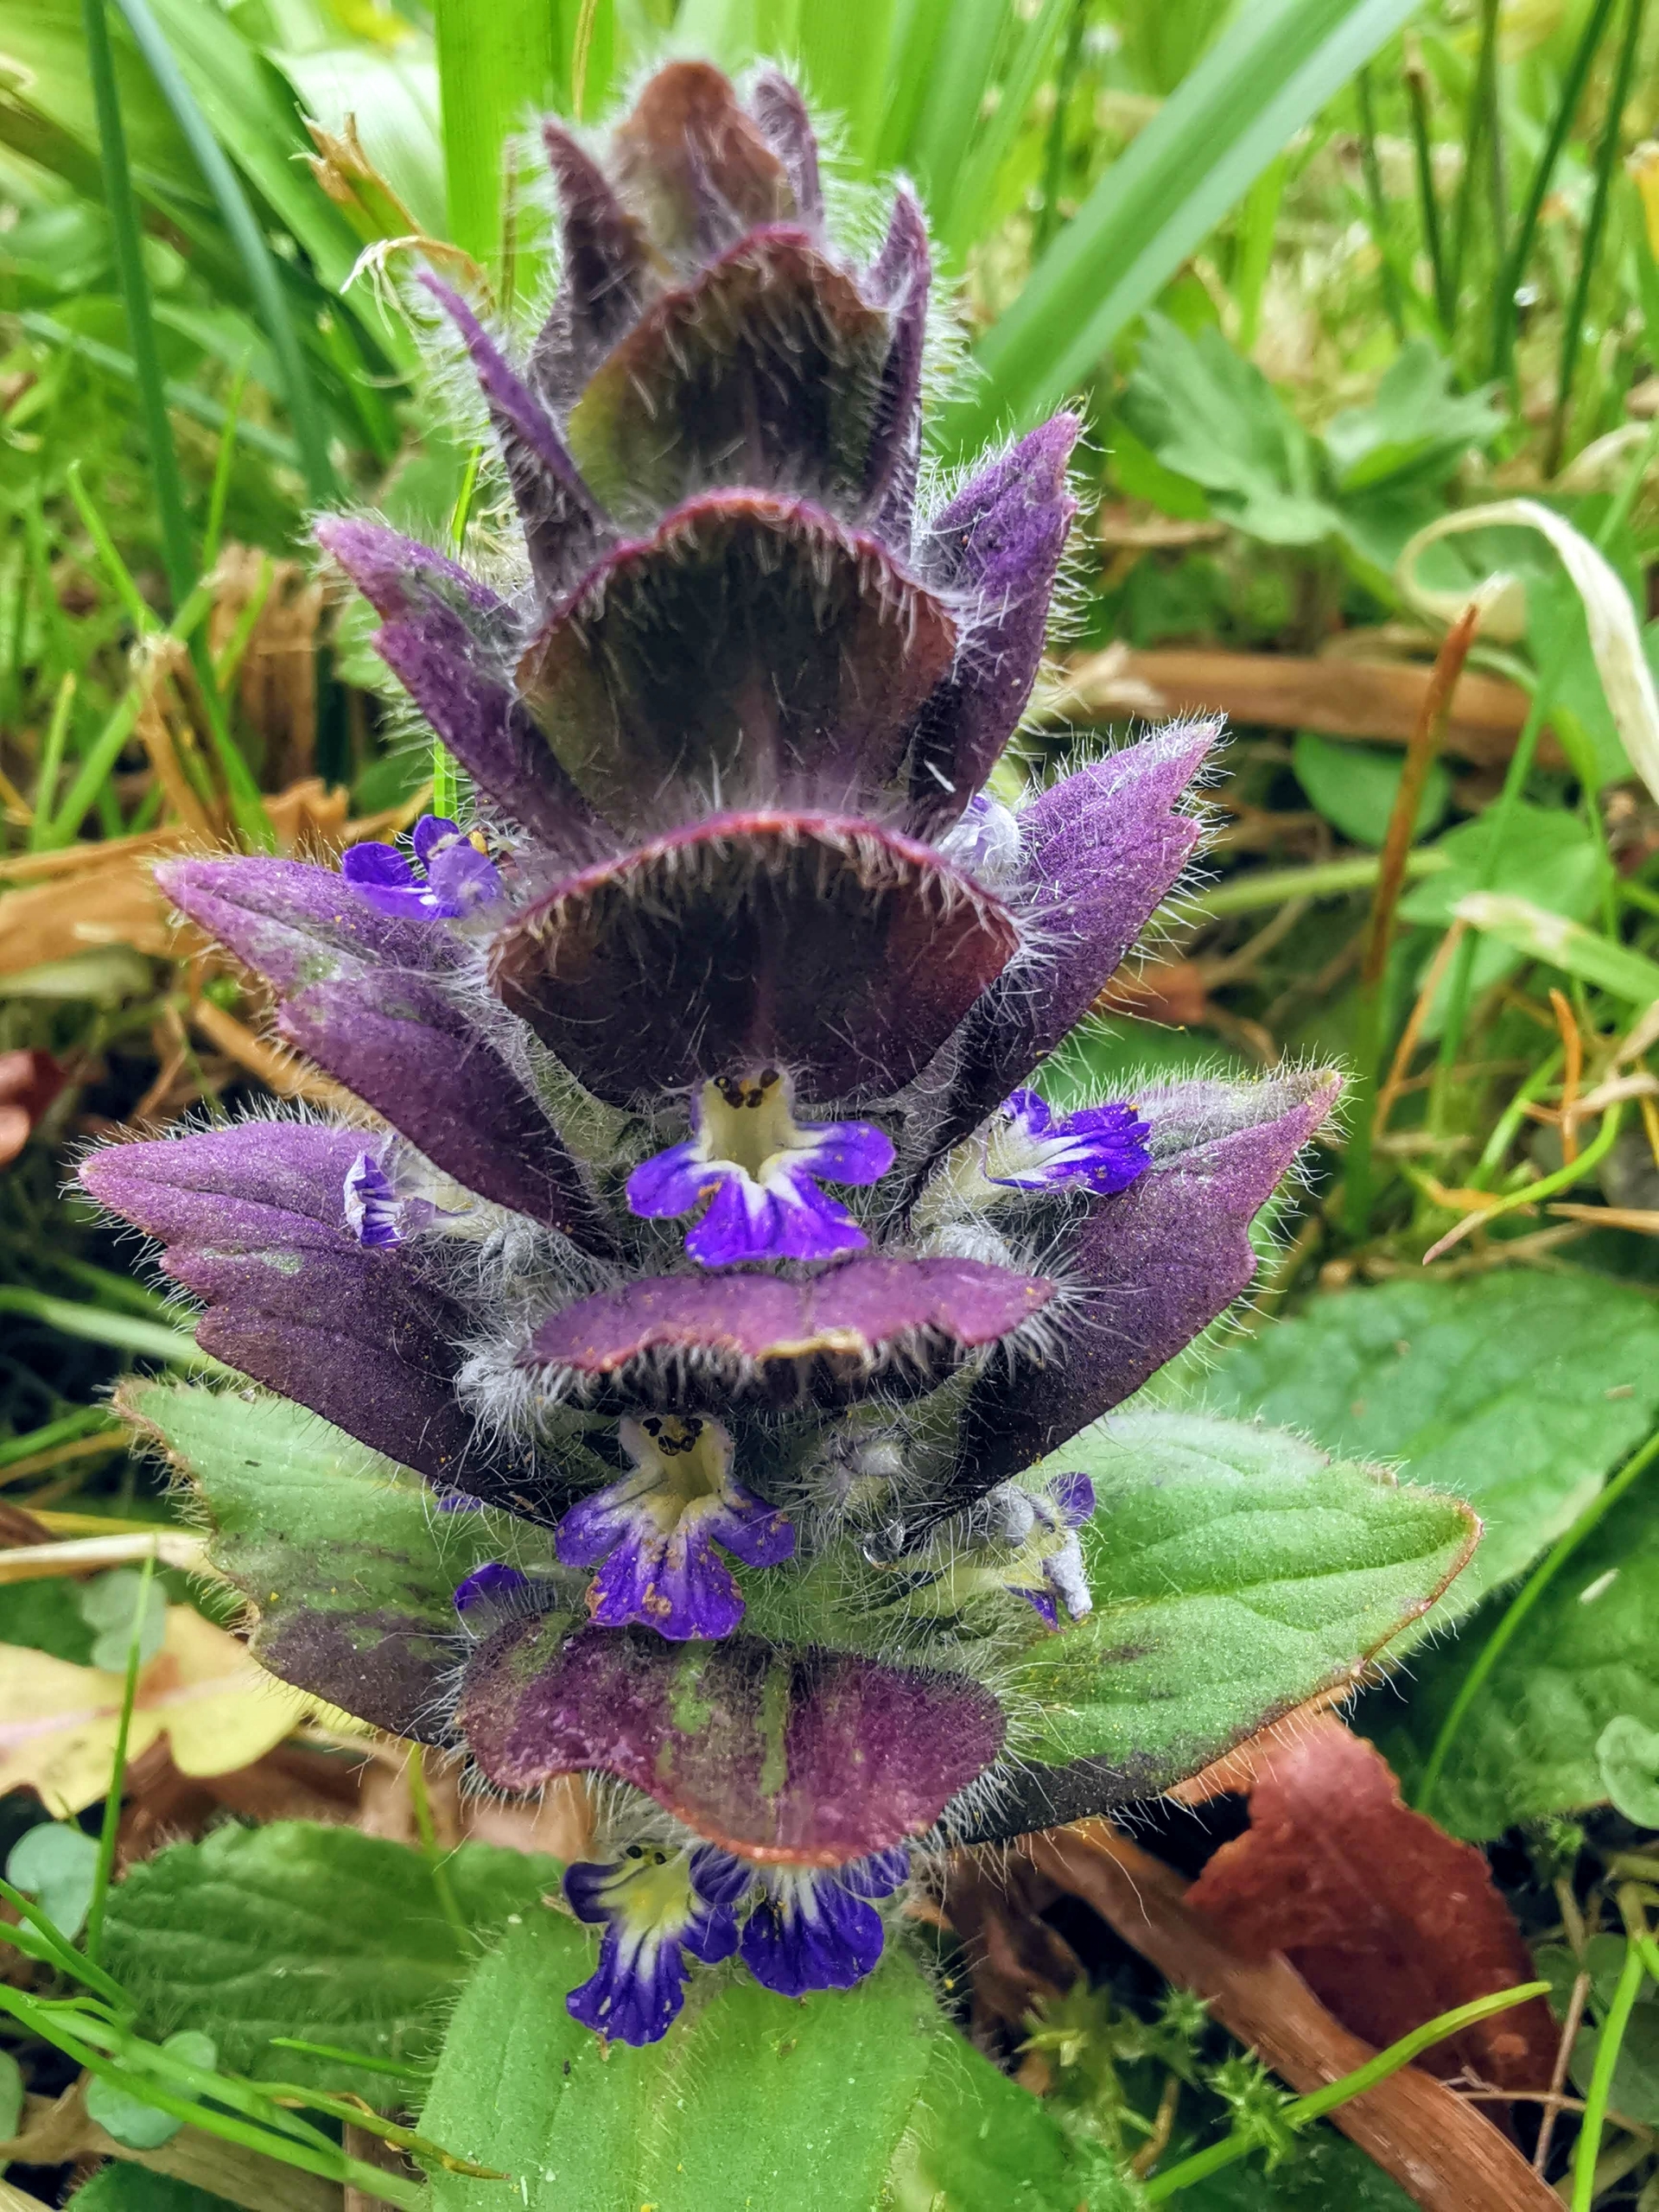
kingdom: Plantae
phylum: Tracheophyta
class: Magnoliopsida
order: Lamiales
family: Lamiaceae
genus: Ajuga
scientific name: Ajuga pyramidalis
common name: Pyramide-læbeløs
